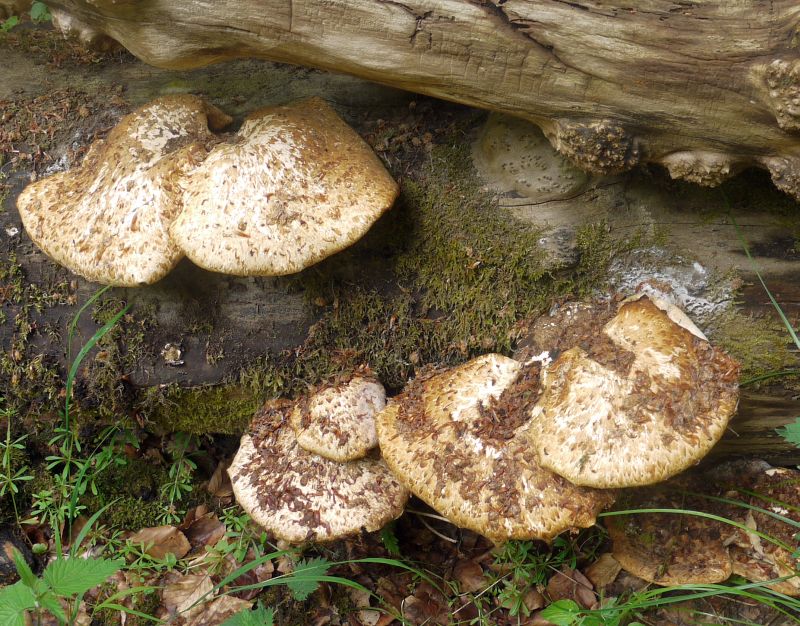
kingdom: Fungi
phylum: Basidiomycota
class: Agaricomycetes
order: Polyporales
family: Polyporaceae
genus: Cerioporus
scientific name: Cerioporus squamosus
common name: skællet stilkporesvamp
